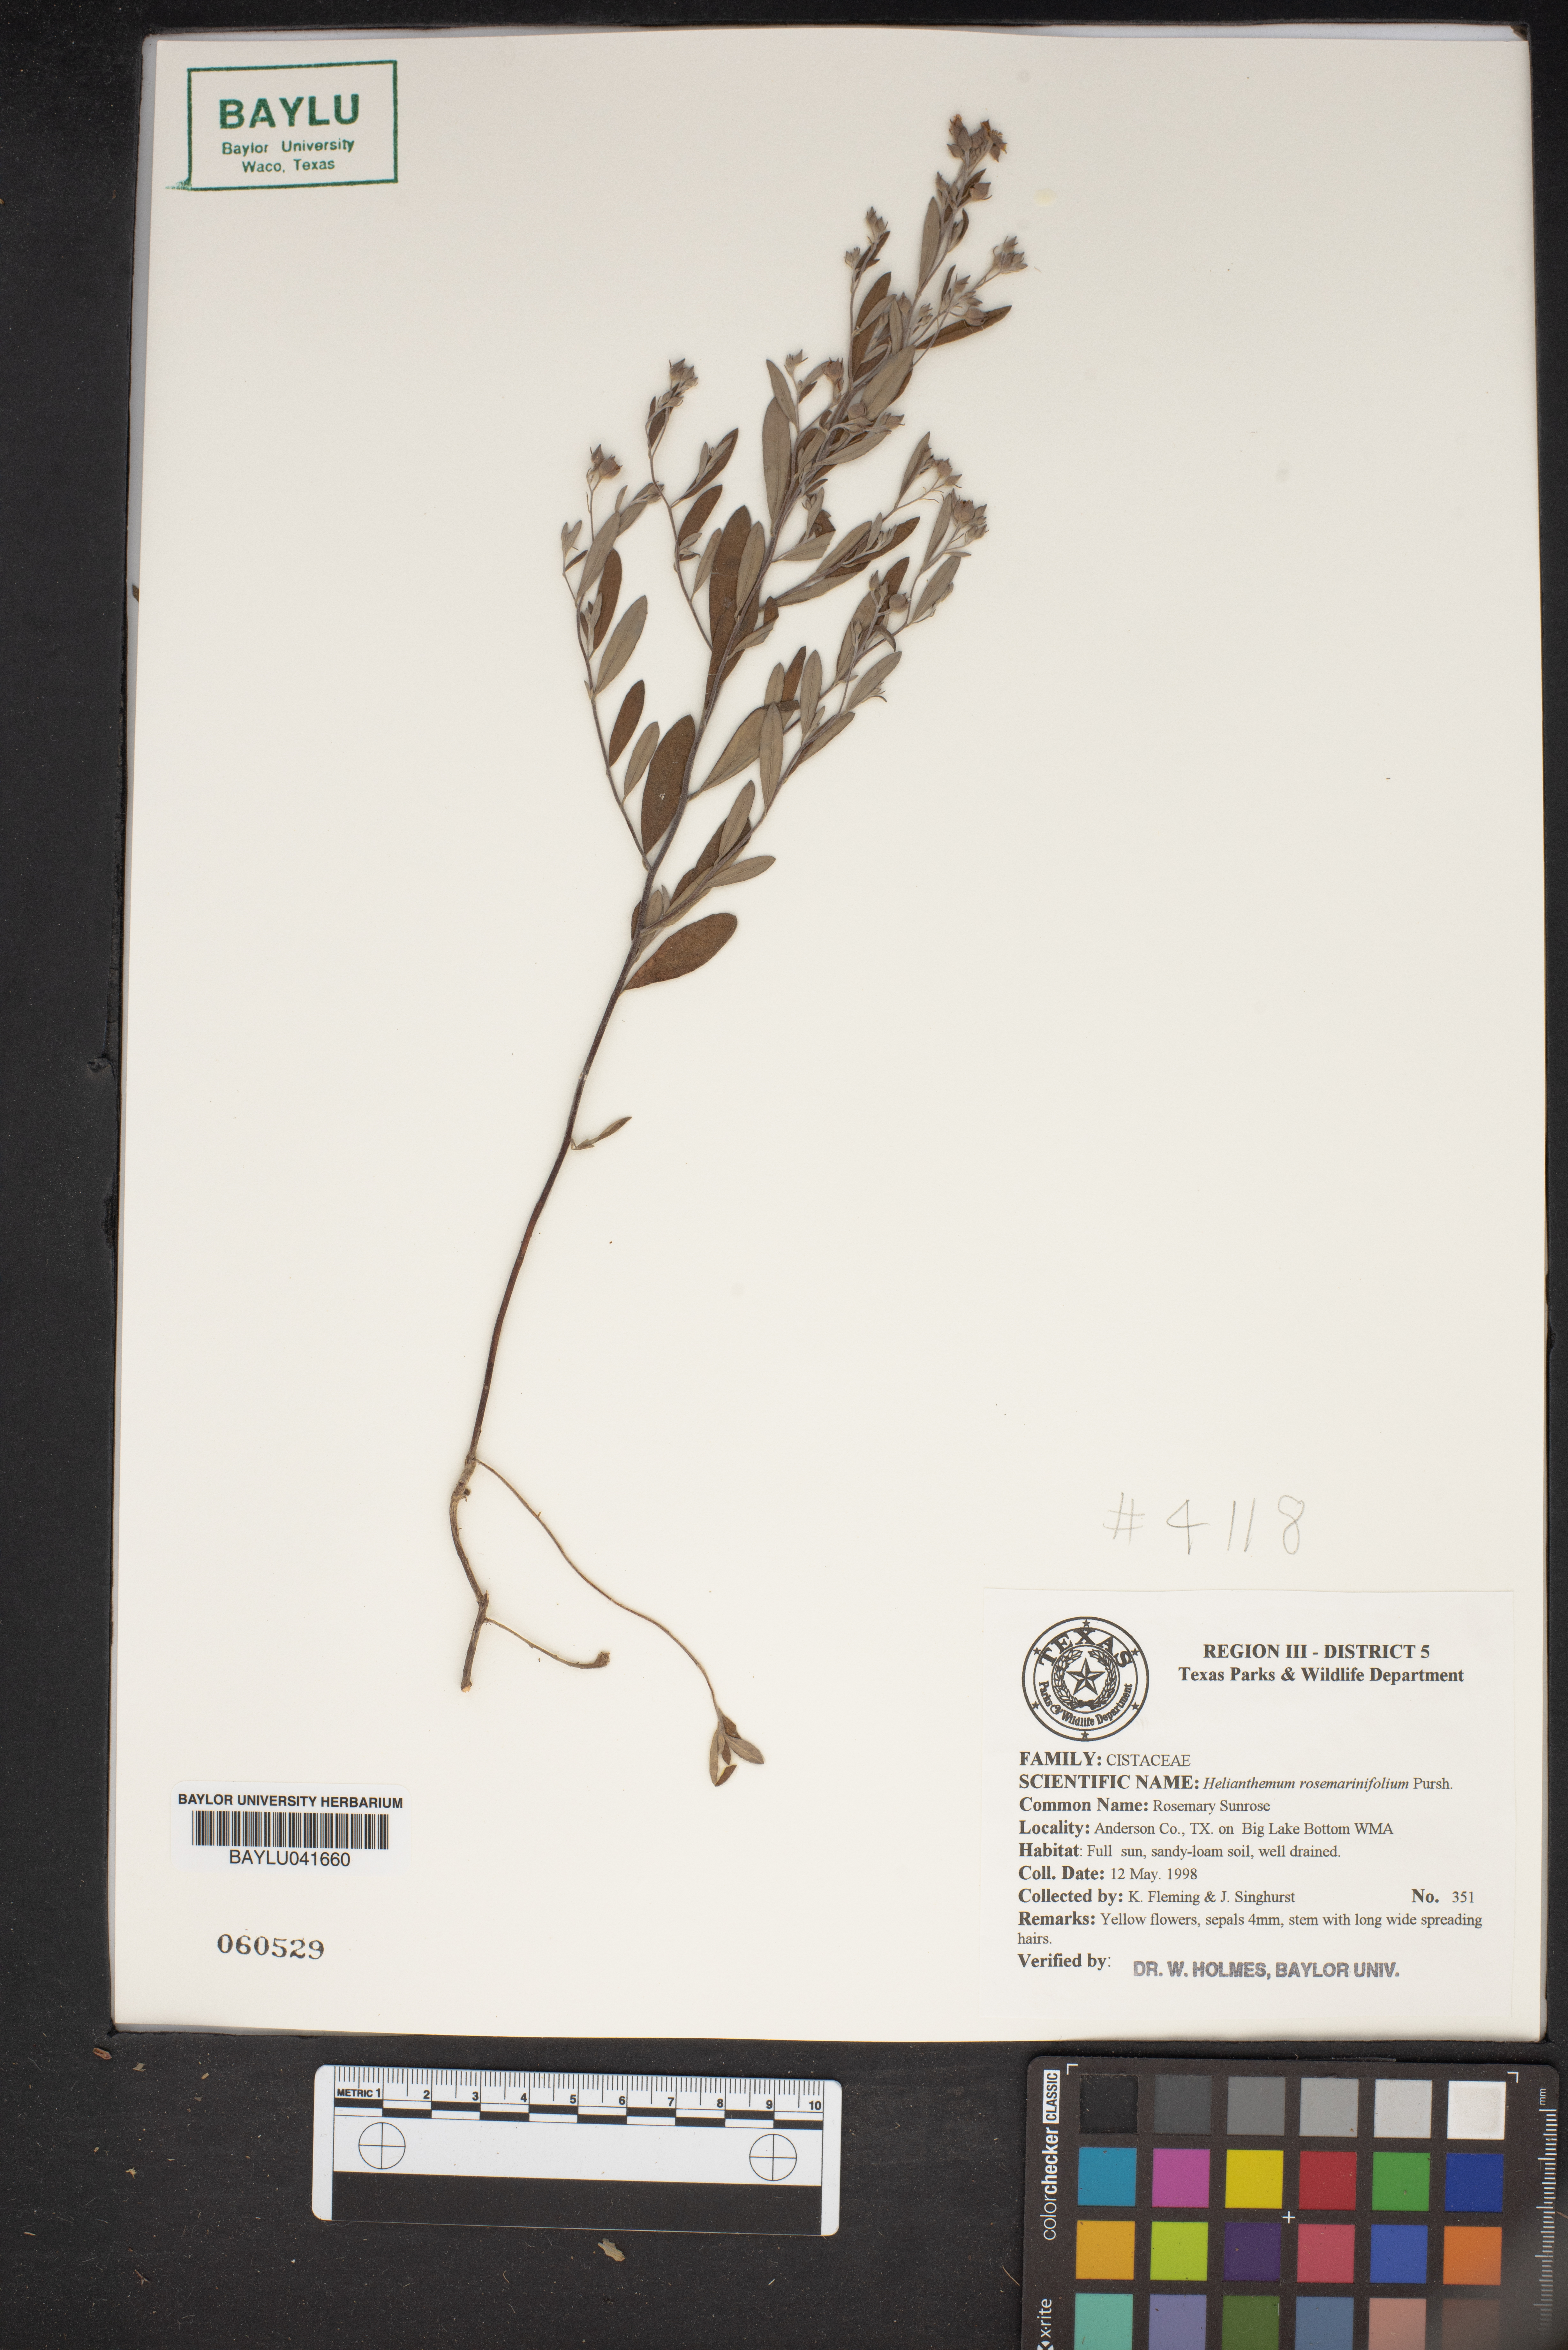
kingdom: Plantae
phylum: Tracheophyta
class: Magnoliopsida
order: Malvales
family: Cistaceae
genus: Crocanthemum
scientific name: Crocanthemum rosmarinifolium
